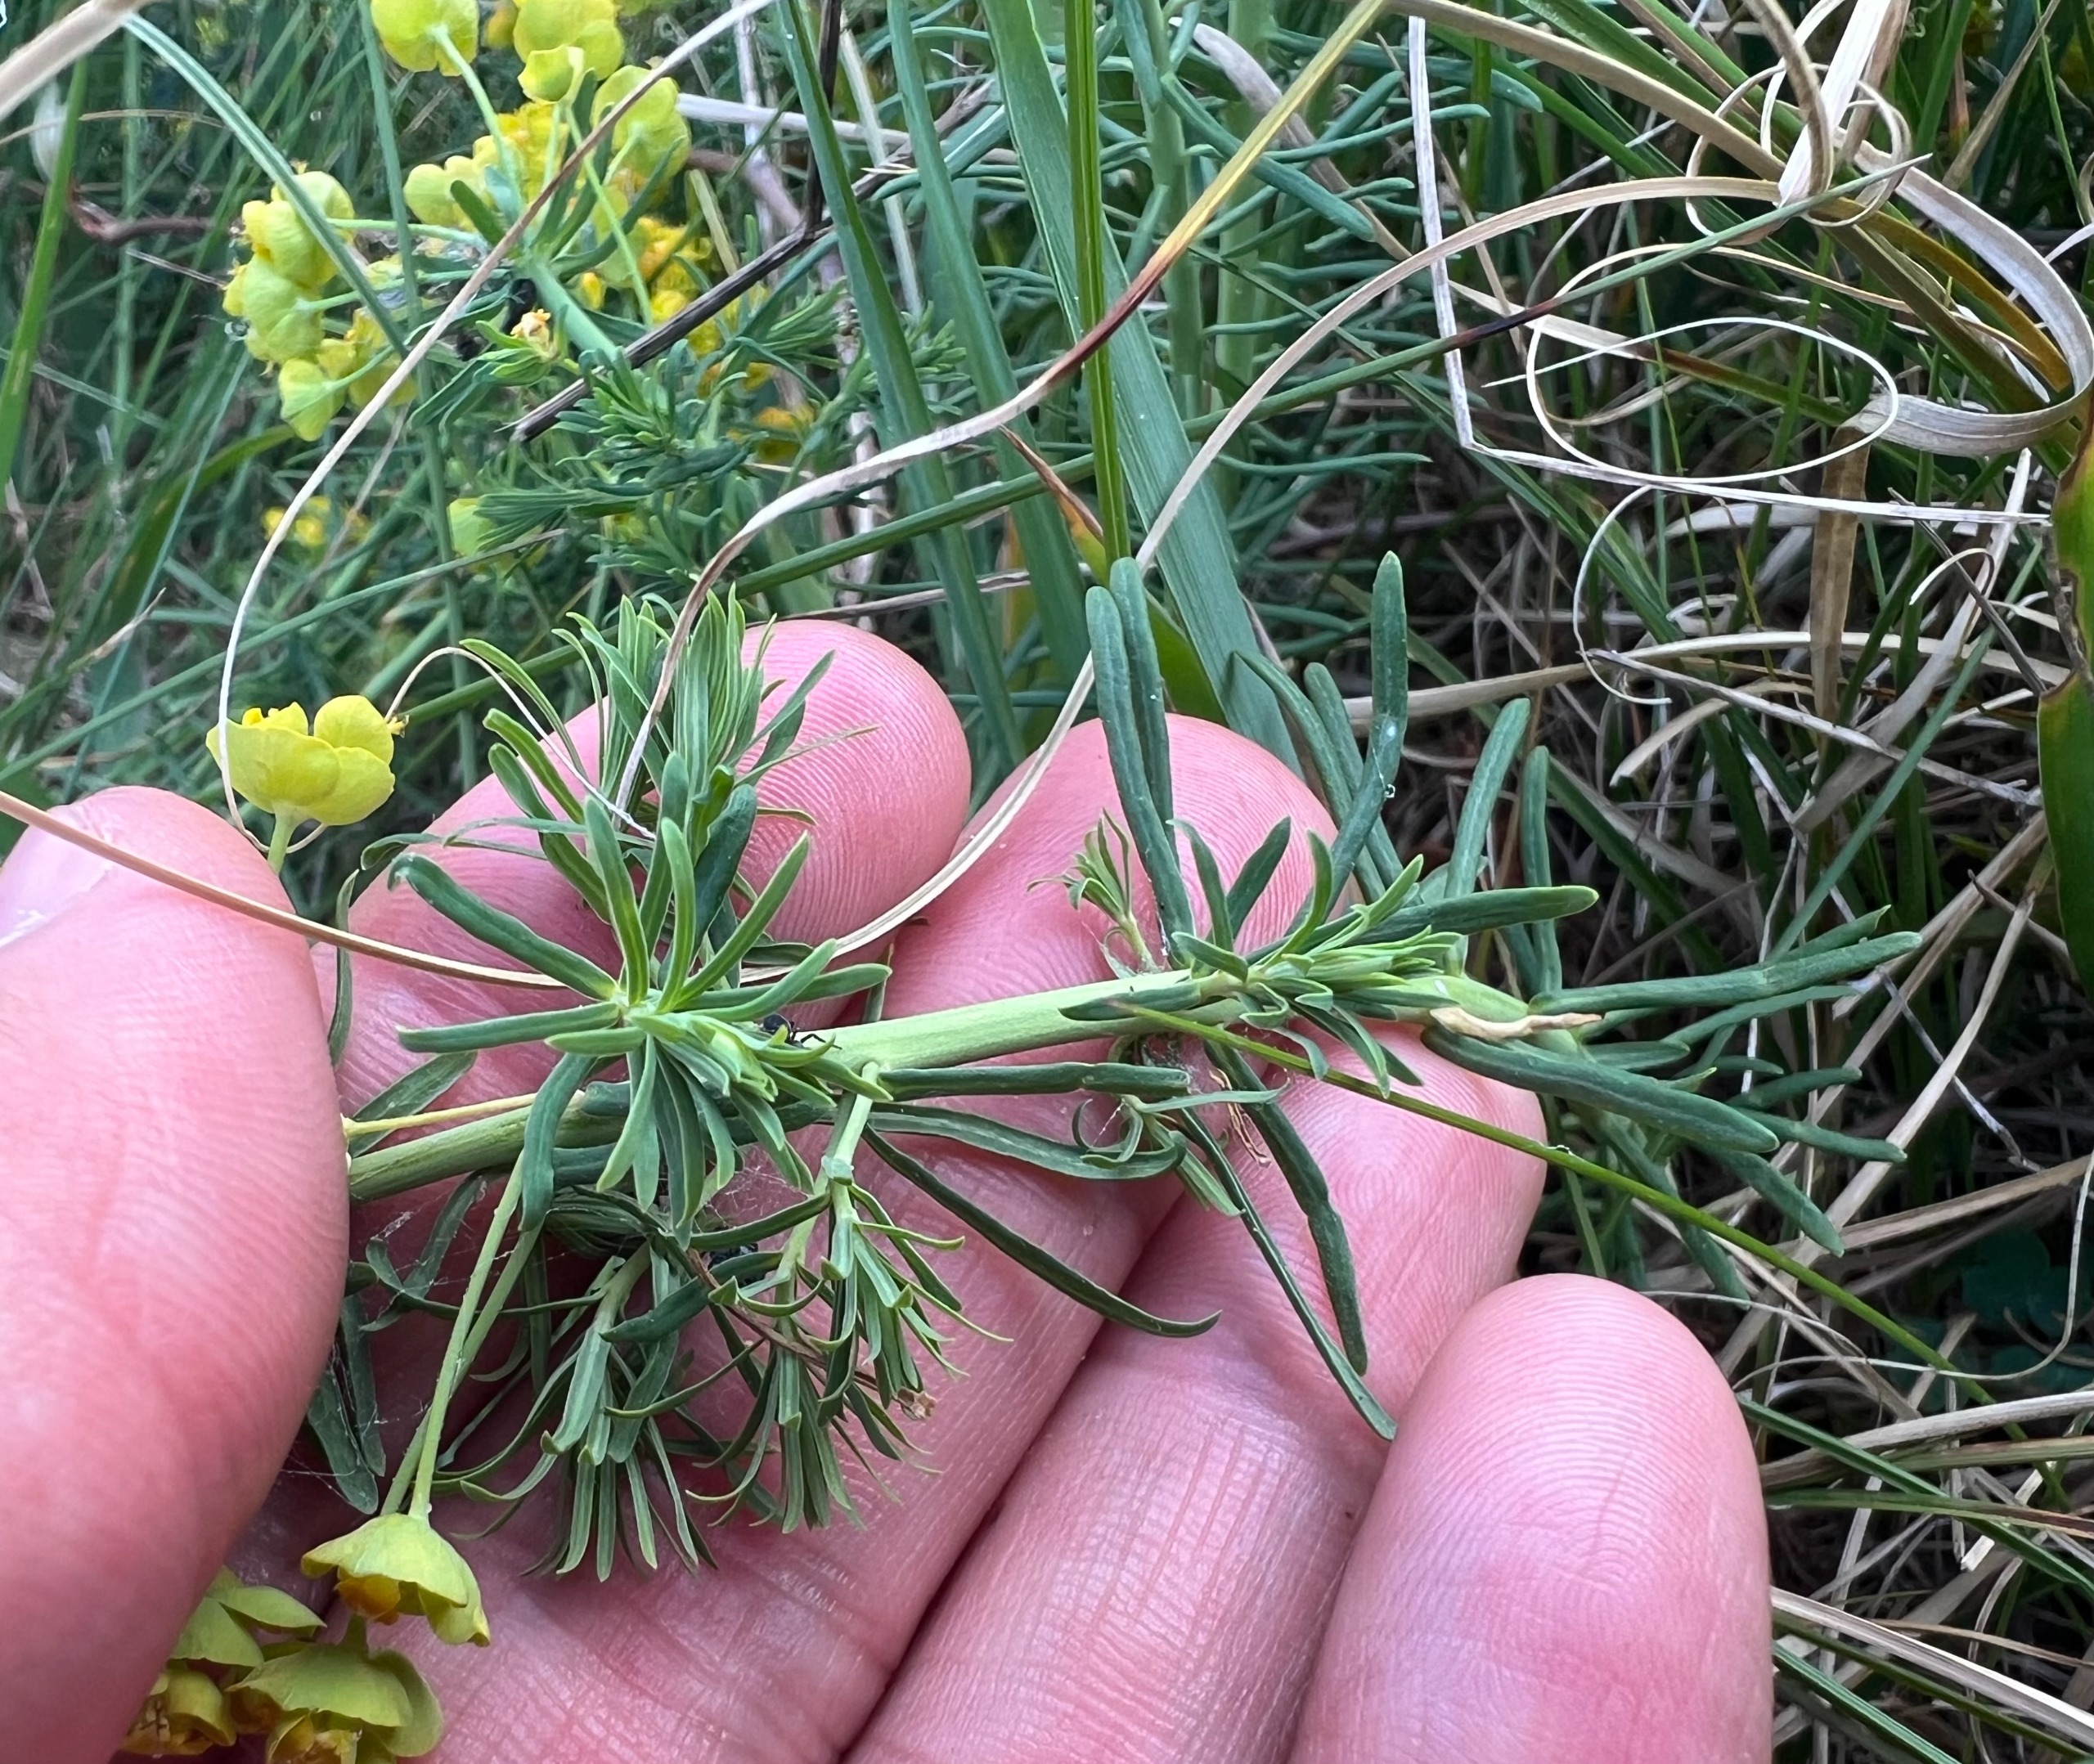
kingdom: Plantae
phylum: Tracheophyta
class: Magnoliopsida
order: Malpighiales
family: Euphorbiaceae
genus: Euphorbia
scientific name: Euphorbia cyparissias
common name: Cypres-vortemælk
